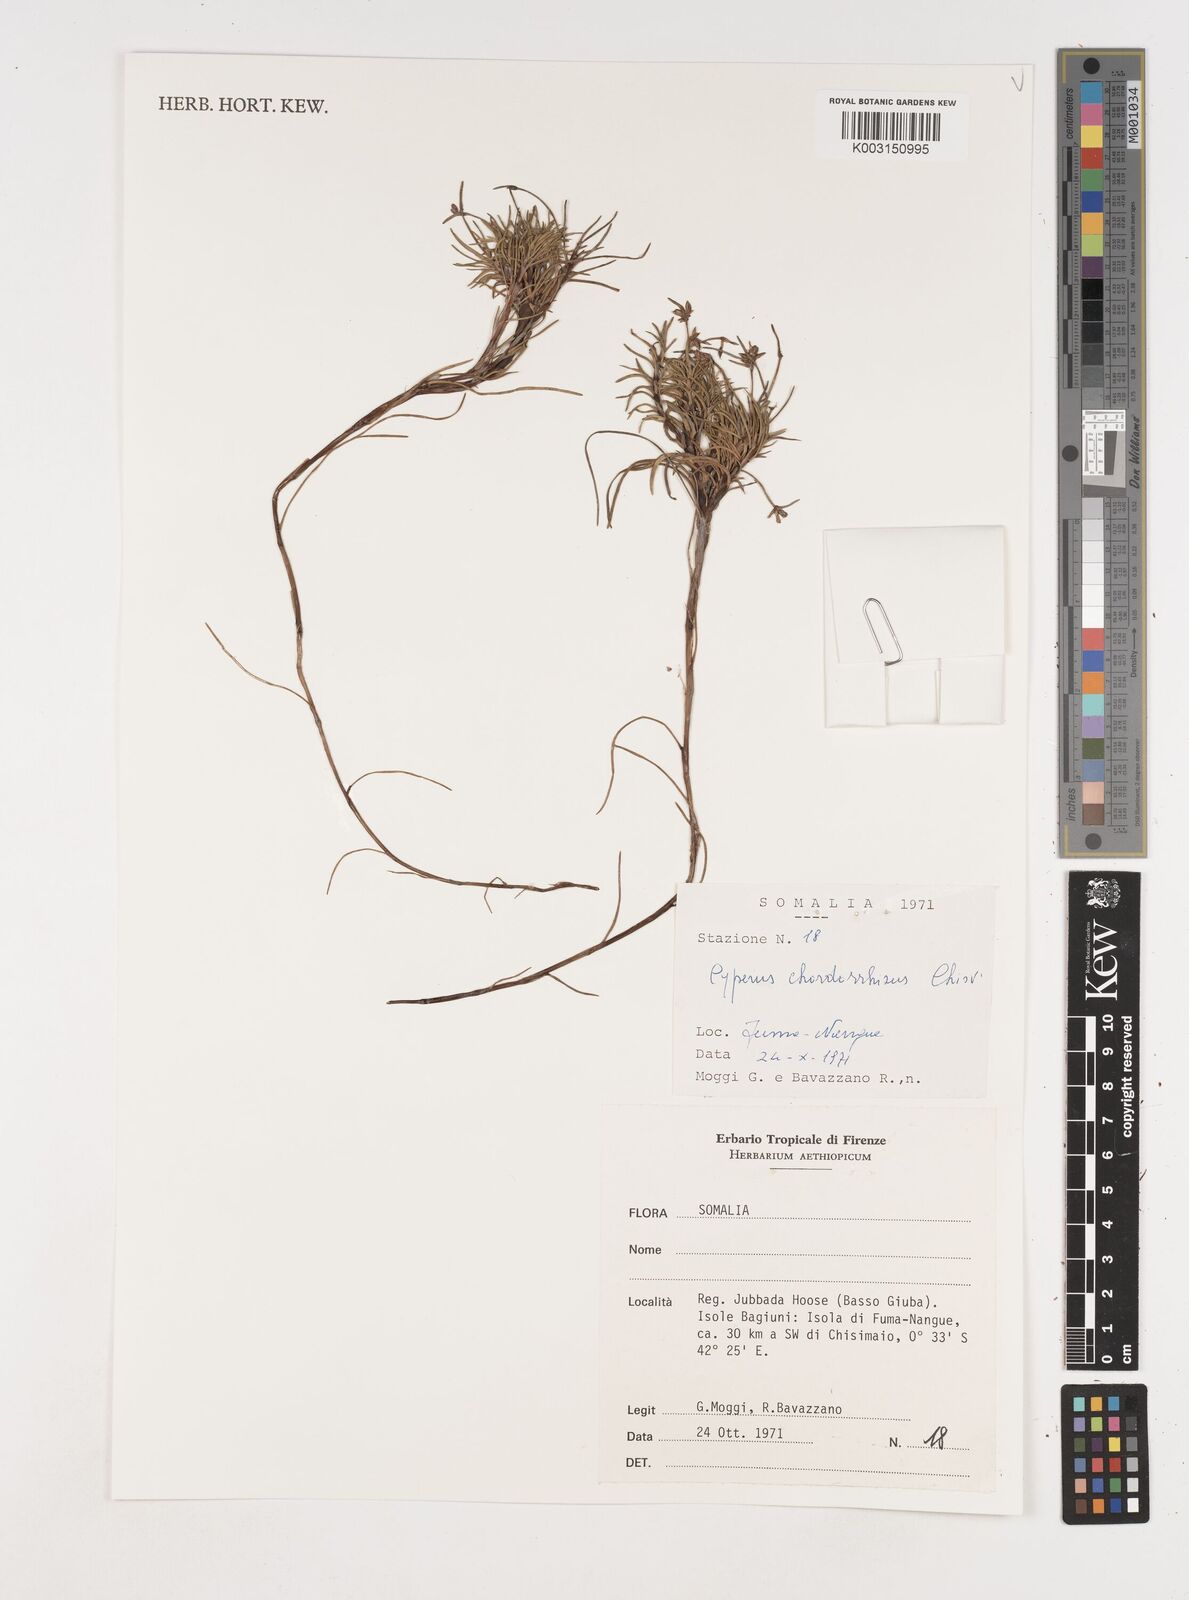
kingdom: Plantae
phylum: Tracheophyta
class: Liliopsida
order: Poales
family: Cyperaceae
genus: Cyperus
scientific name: Cyperus chordorrhizus
